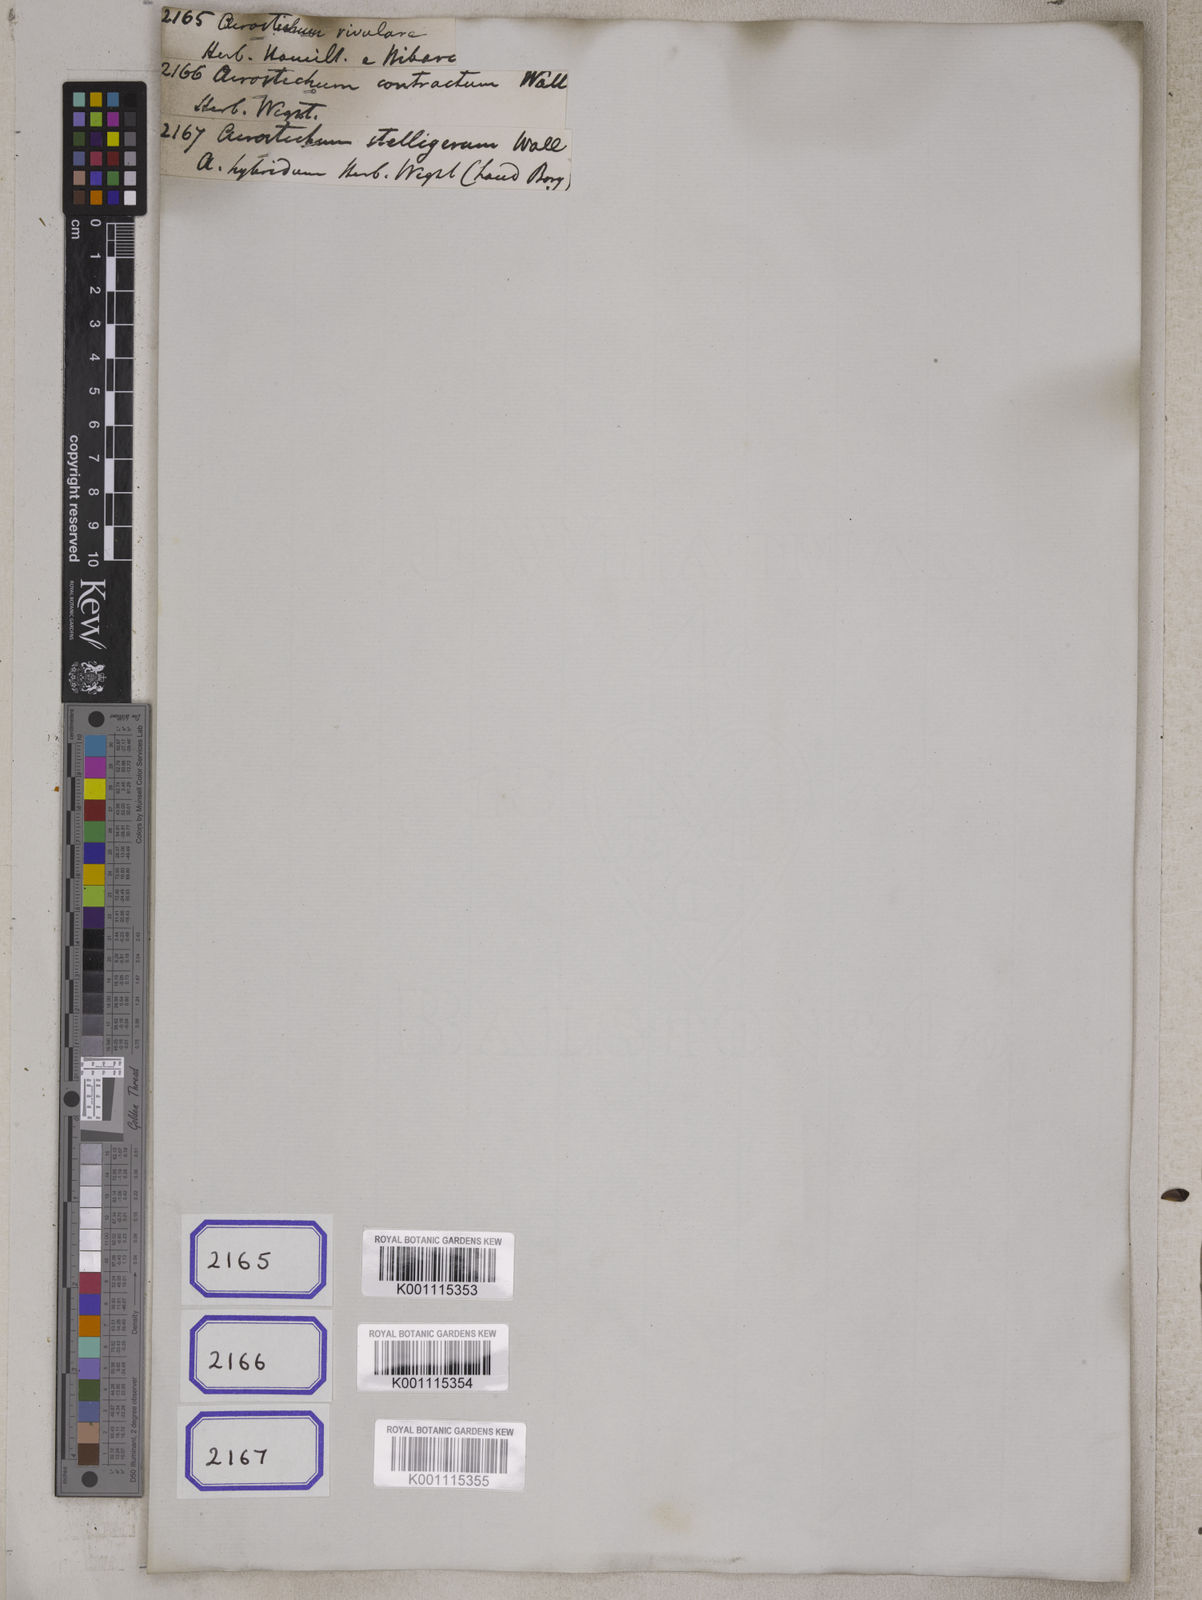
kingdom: Plantae
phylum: Tracheophyta
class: Polypodiopsida
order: Polypodiales
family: Pteridaceae
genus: Acrostichum
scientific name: Acrostichum
